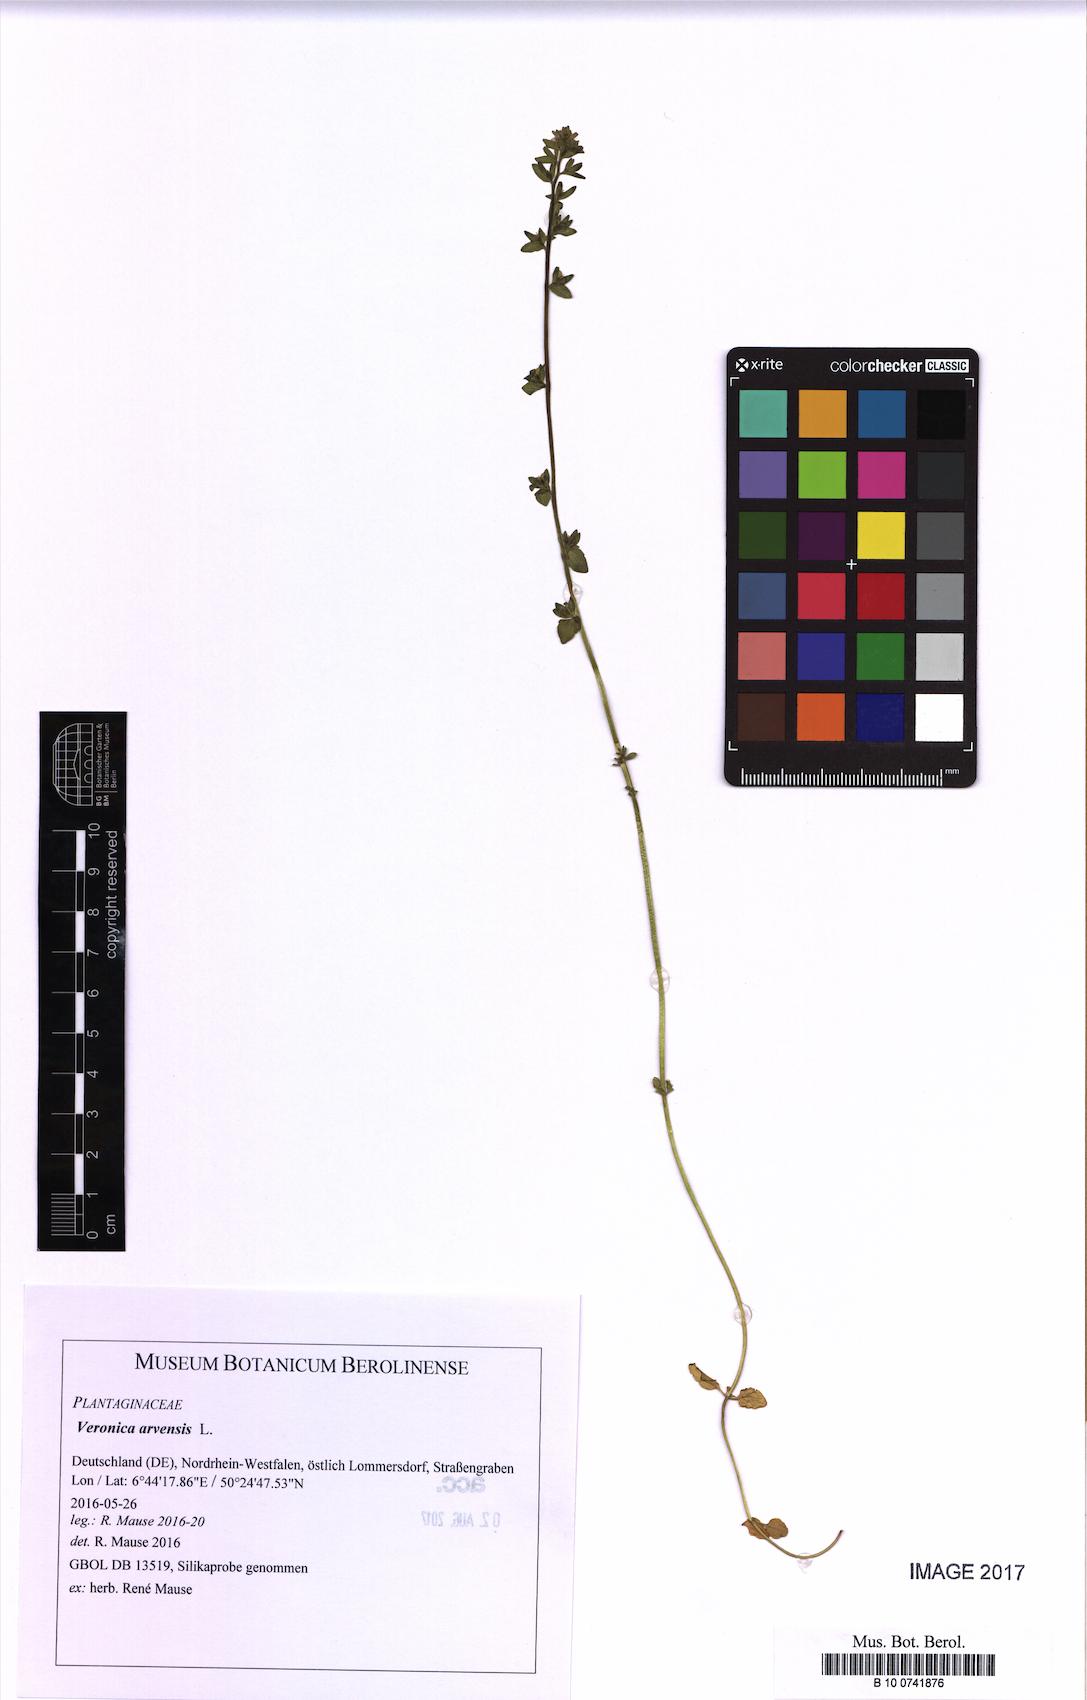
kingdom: Plantae
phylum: Tracheophyta
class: Magnoliopsida
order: Lamiales
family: Plantaginaceae
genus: Veronica
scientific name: Veronica arvensis
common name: Corn speedwell
